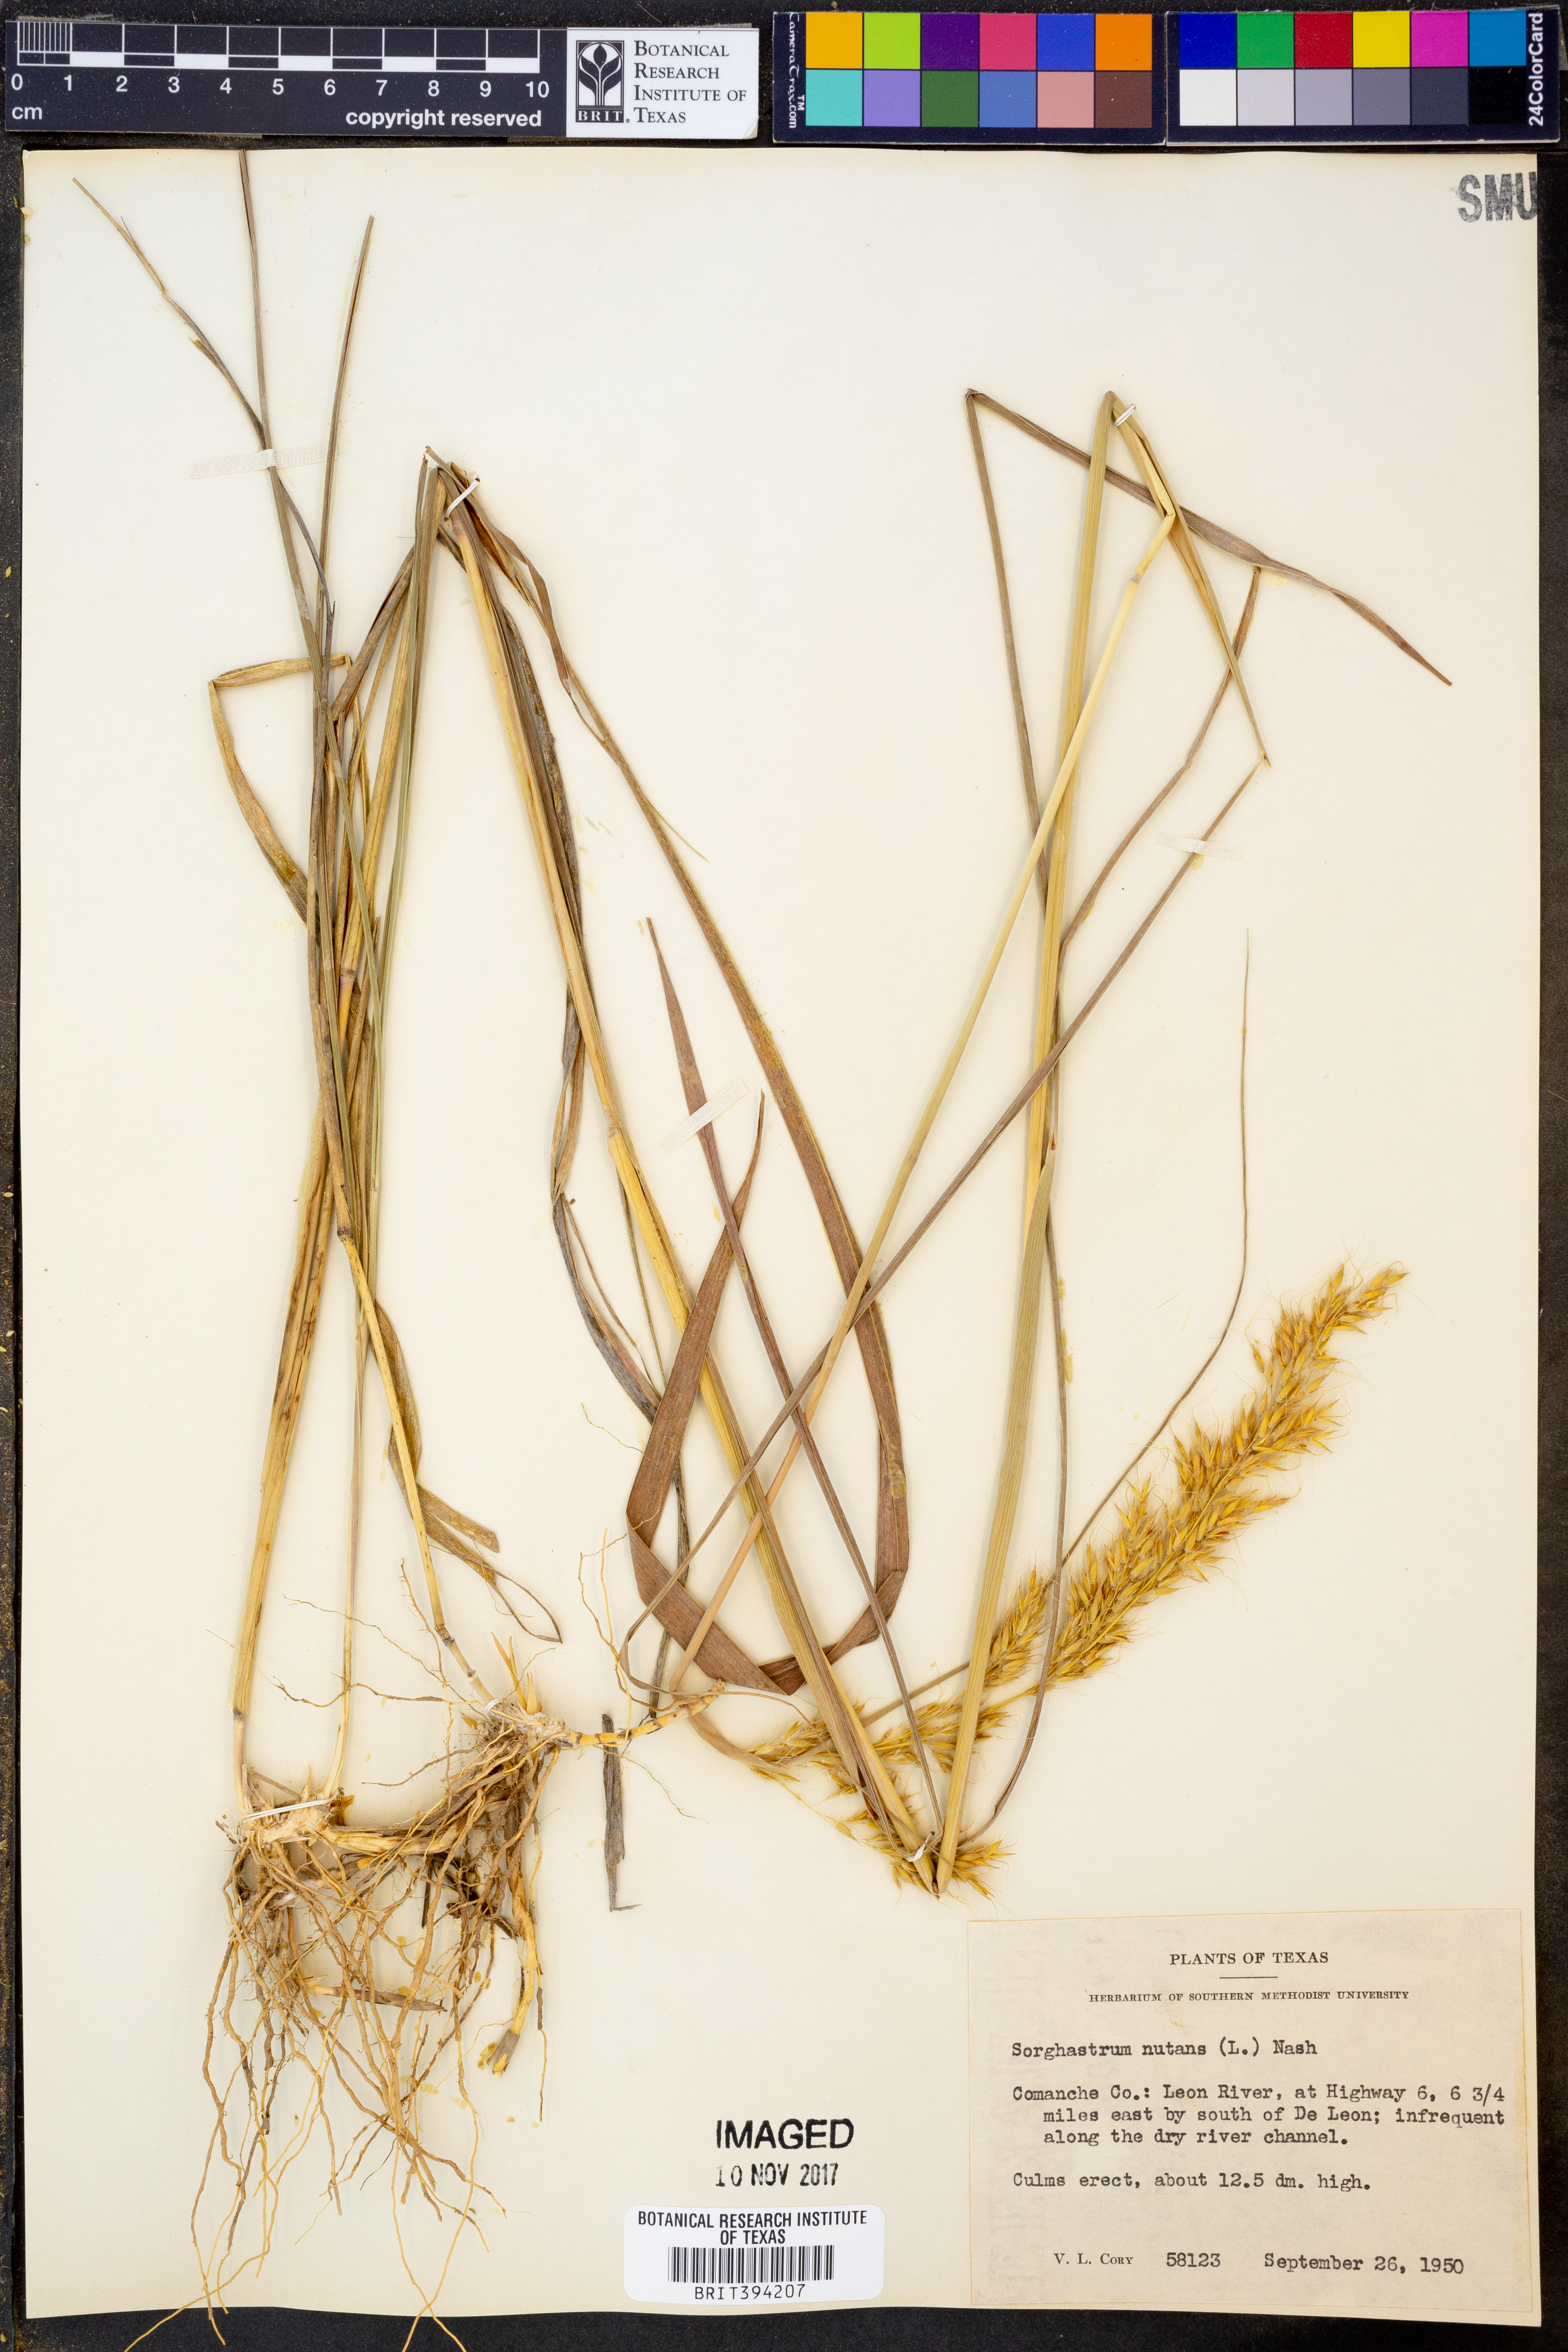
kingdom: Plantae
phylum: Tracheophyta
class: Liliopsida
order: Poales
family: Poaceae
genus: Sorghastrum
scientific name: Sorghastrum nutans
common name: Indian grass
